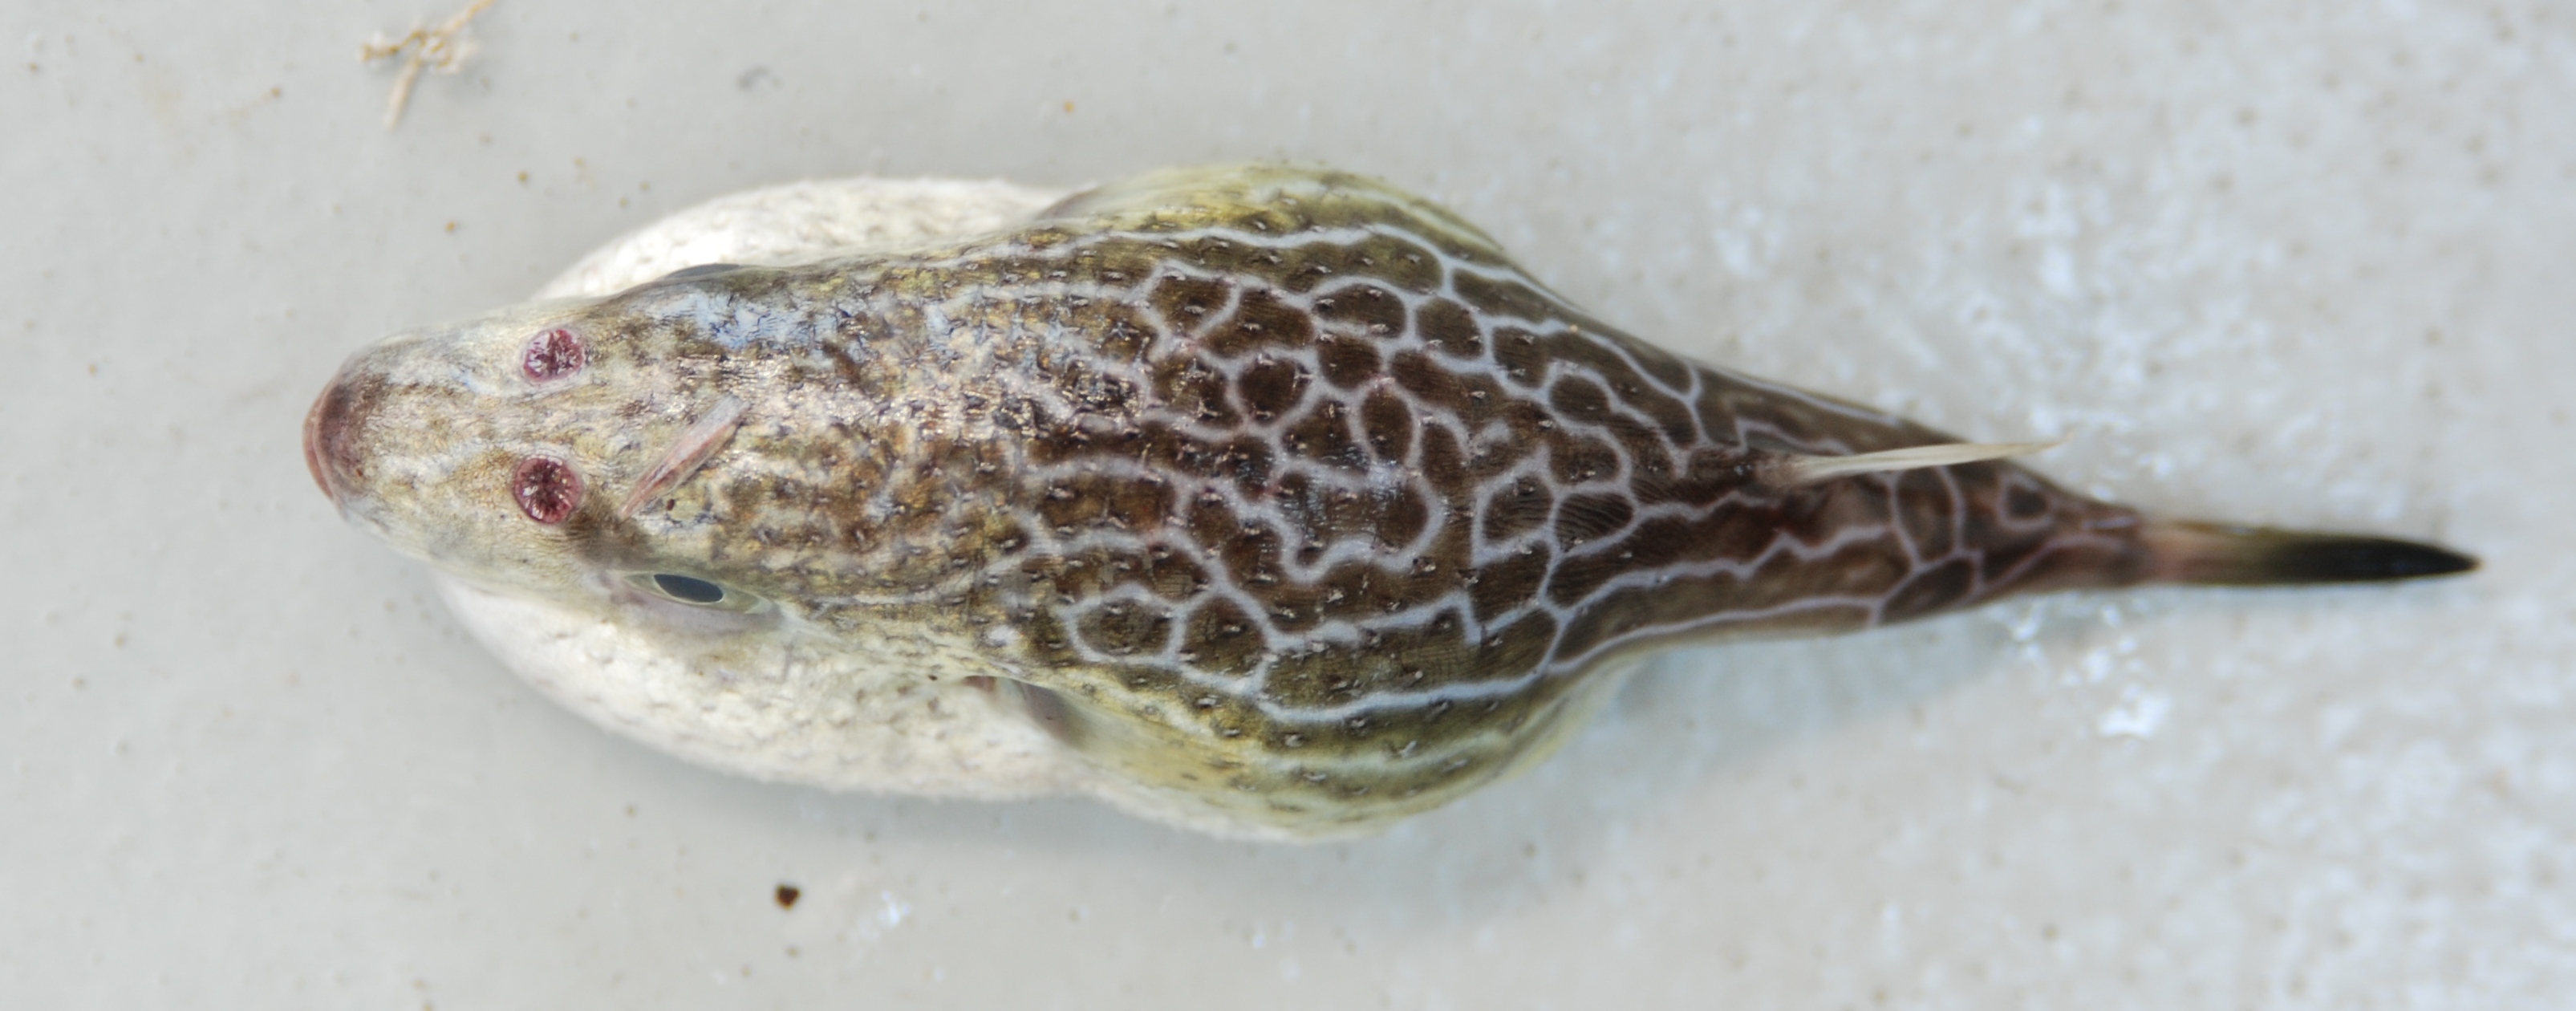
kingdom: Animalia
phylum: Chordata
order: Tetraodontiformes
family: Tetraodontidae
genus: Pelagocephalus
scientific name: Pelagocephalus marki
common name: Rippled blaasop
